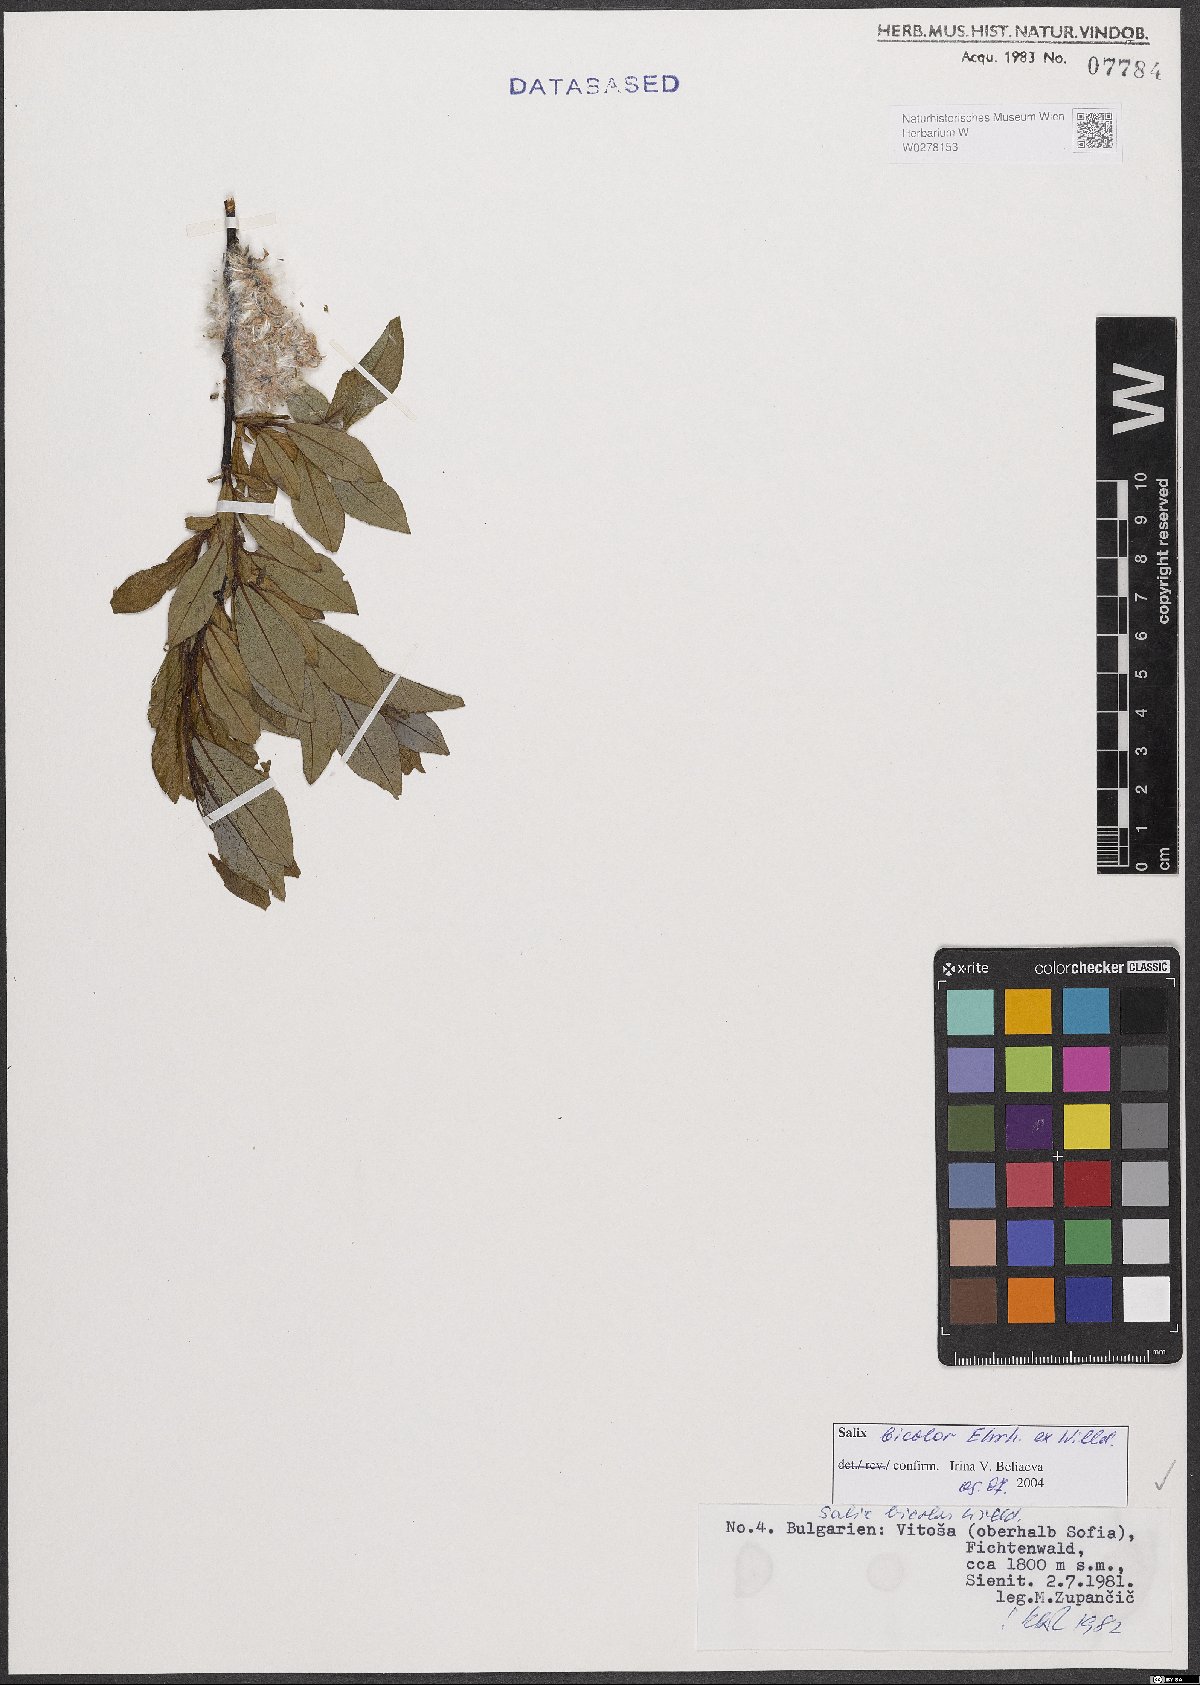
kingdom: Plantae
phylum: Tracheophyta
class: Magnoliopsida
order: Malpighiales
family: Salicaceae
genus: Salix
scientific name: Salix bicolor
